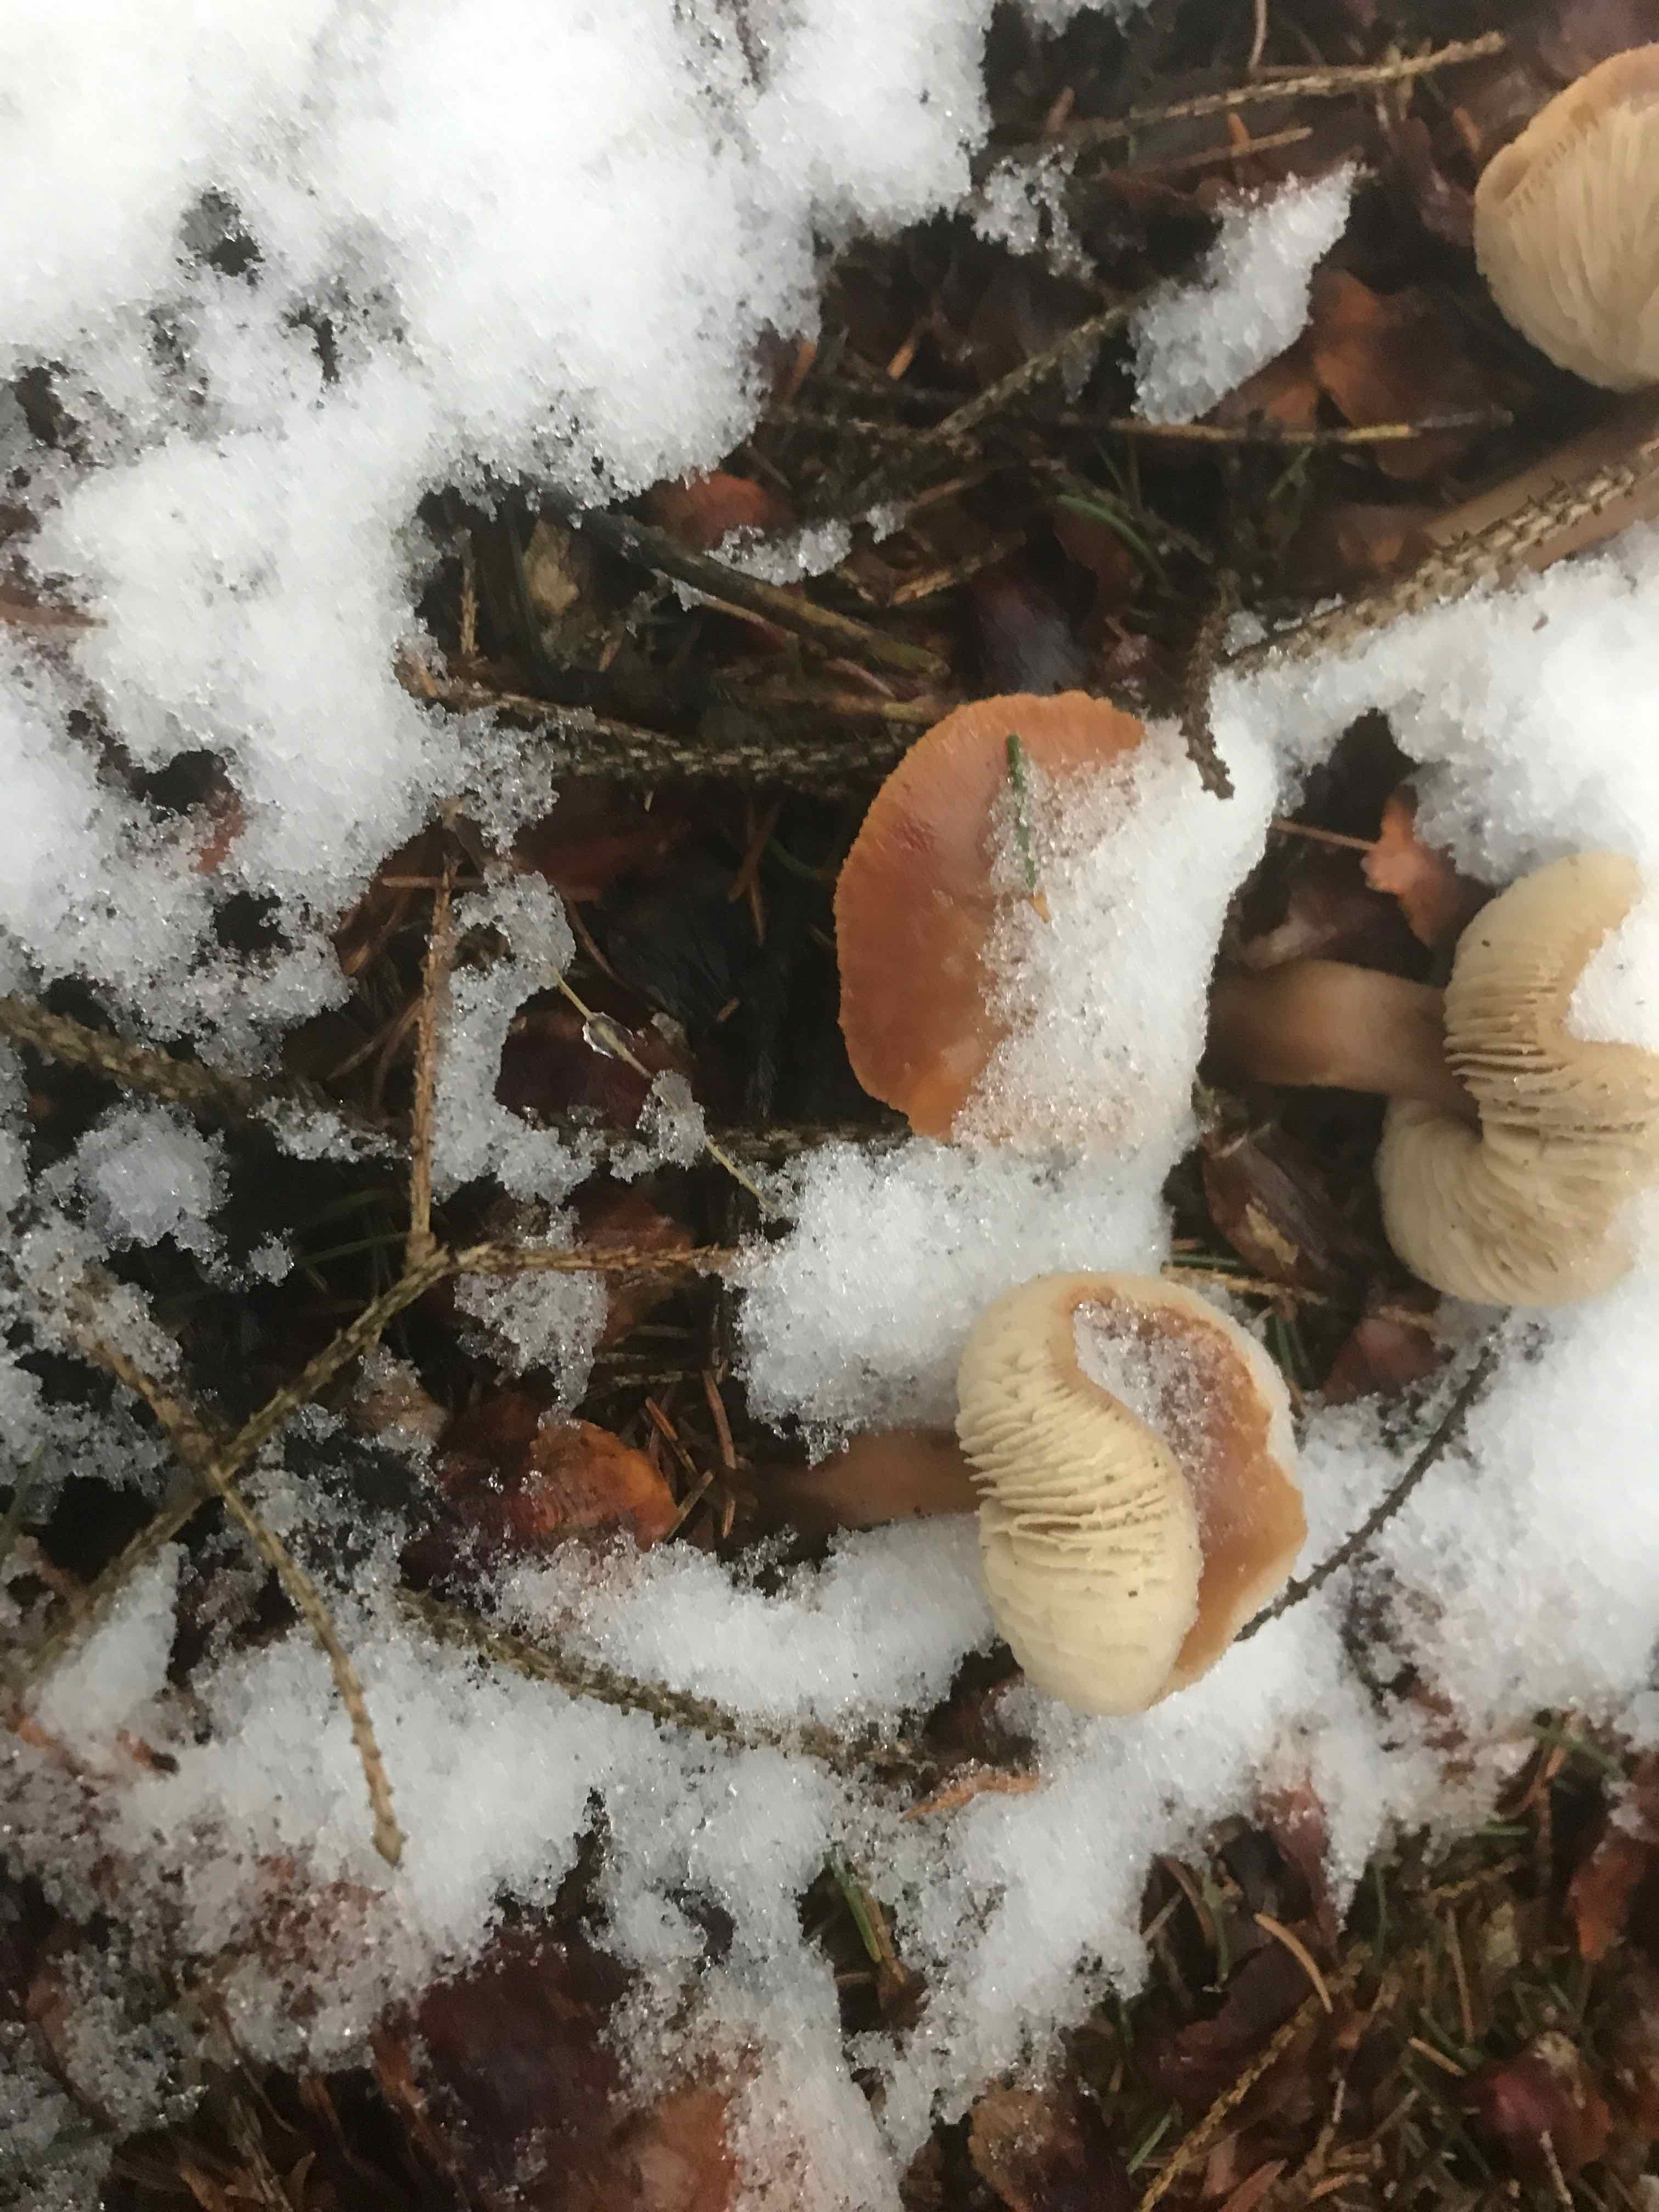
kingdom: Fungi
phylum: Basidiomycota
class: Agaricomycetes
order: Agaricales
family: Omphalotaceae
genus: Rhodocollybia
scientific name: Rhodocollybia asema
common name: horngrå fladhat
